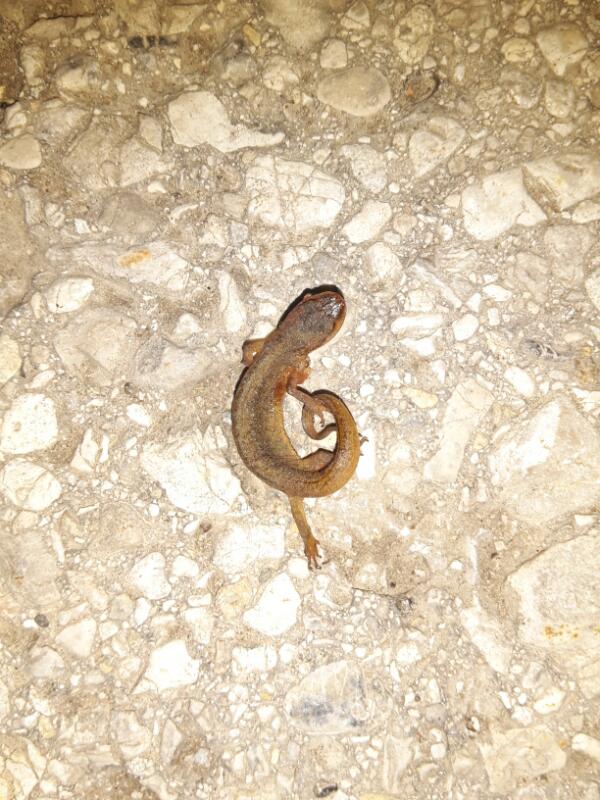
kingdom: Animalia
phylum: Chordata
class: Amphibia
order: Caudata
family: Salamandridae
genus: Lissotriton
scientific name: Lissotriton vulgaris
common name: Smooth newt
